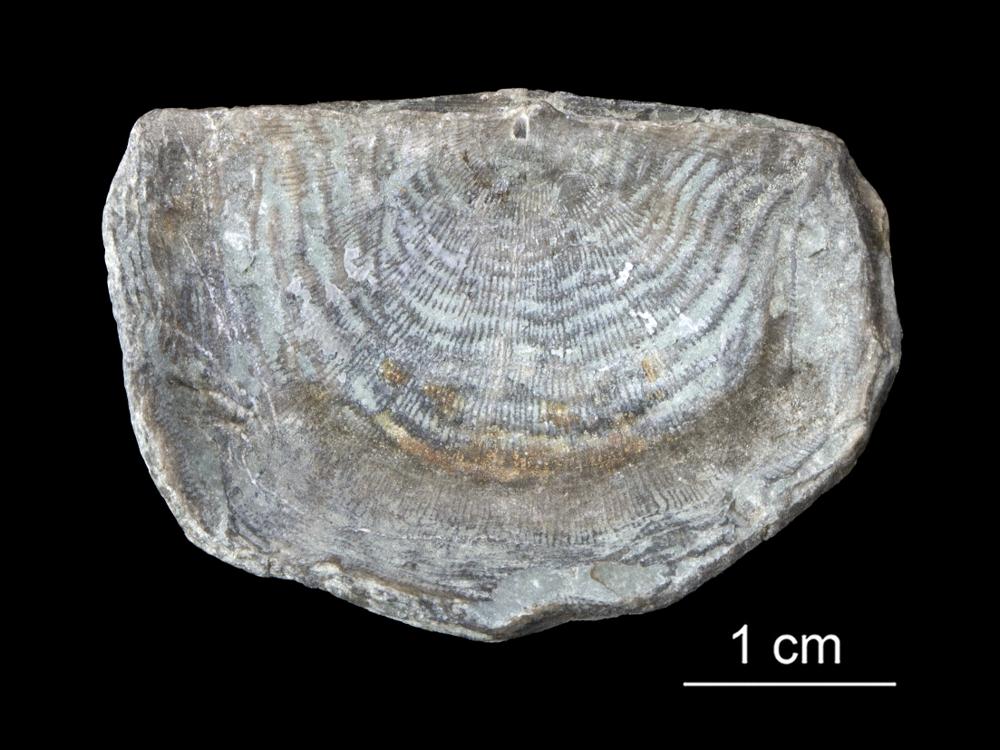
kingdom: Animalia
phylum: Brachiopoda
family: Strophomenidae
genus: Leptaena
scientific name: Leptaena Strophomena rhomboidalis
